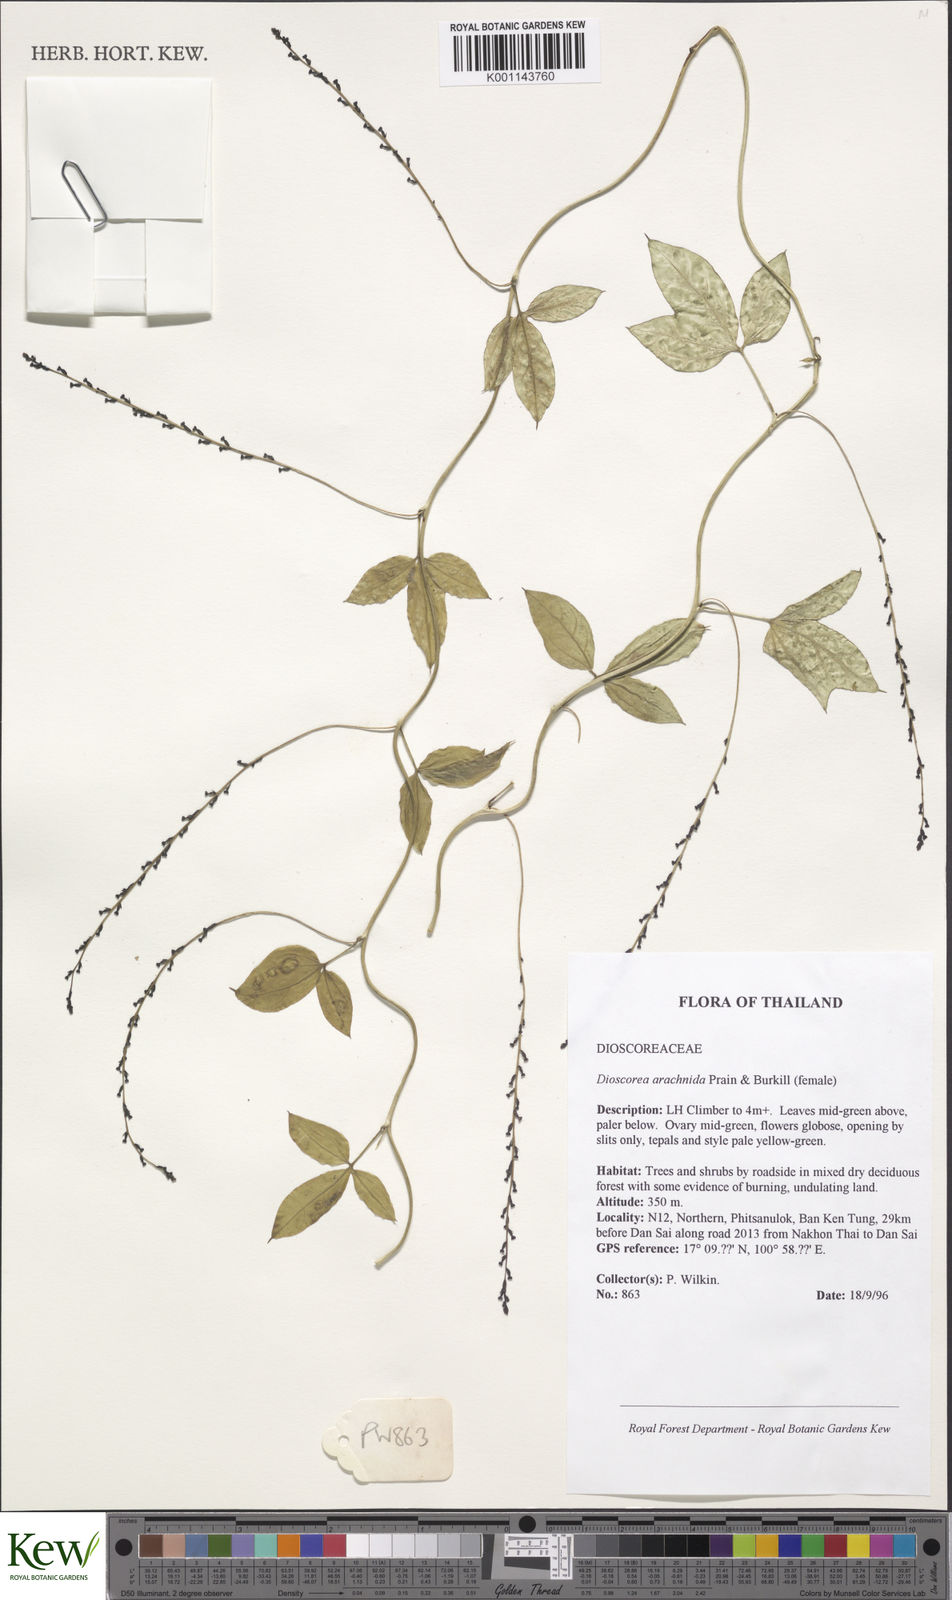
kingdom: Plantae
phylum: Tracheophyta
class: Liliopsida
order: Dioscoreales
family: Dioscoreaceae
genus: Dioscorea
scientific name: Dioscorea arachidna
